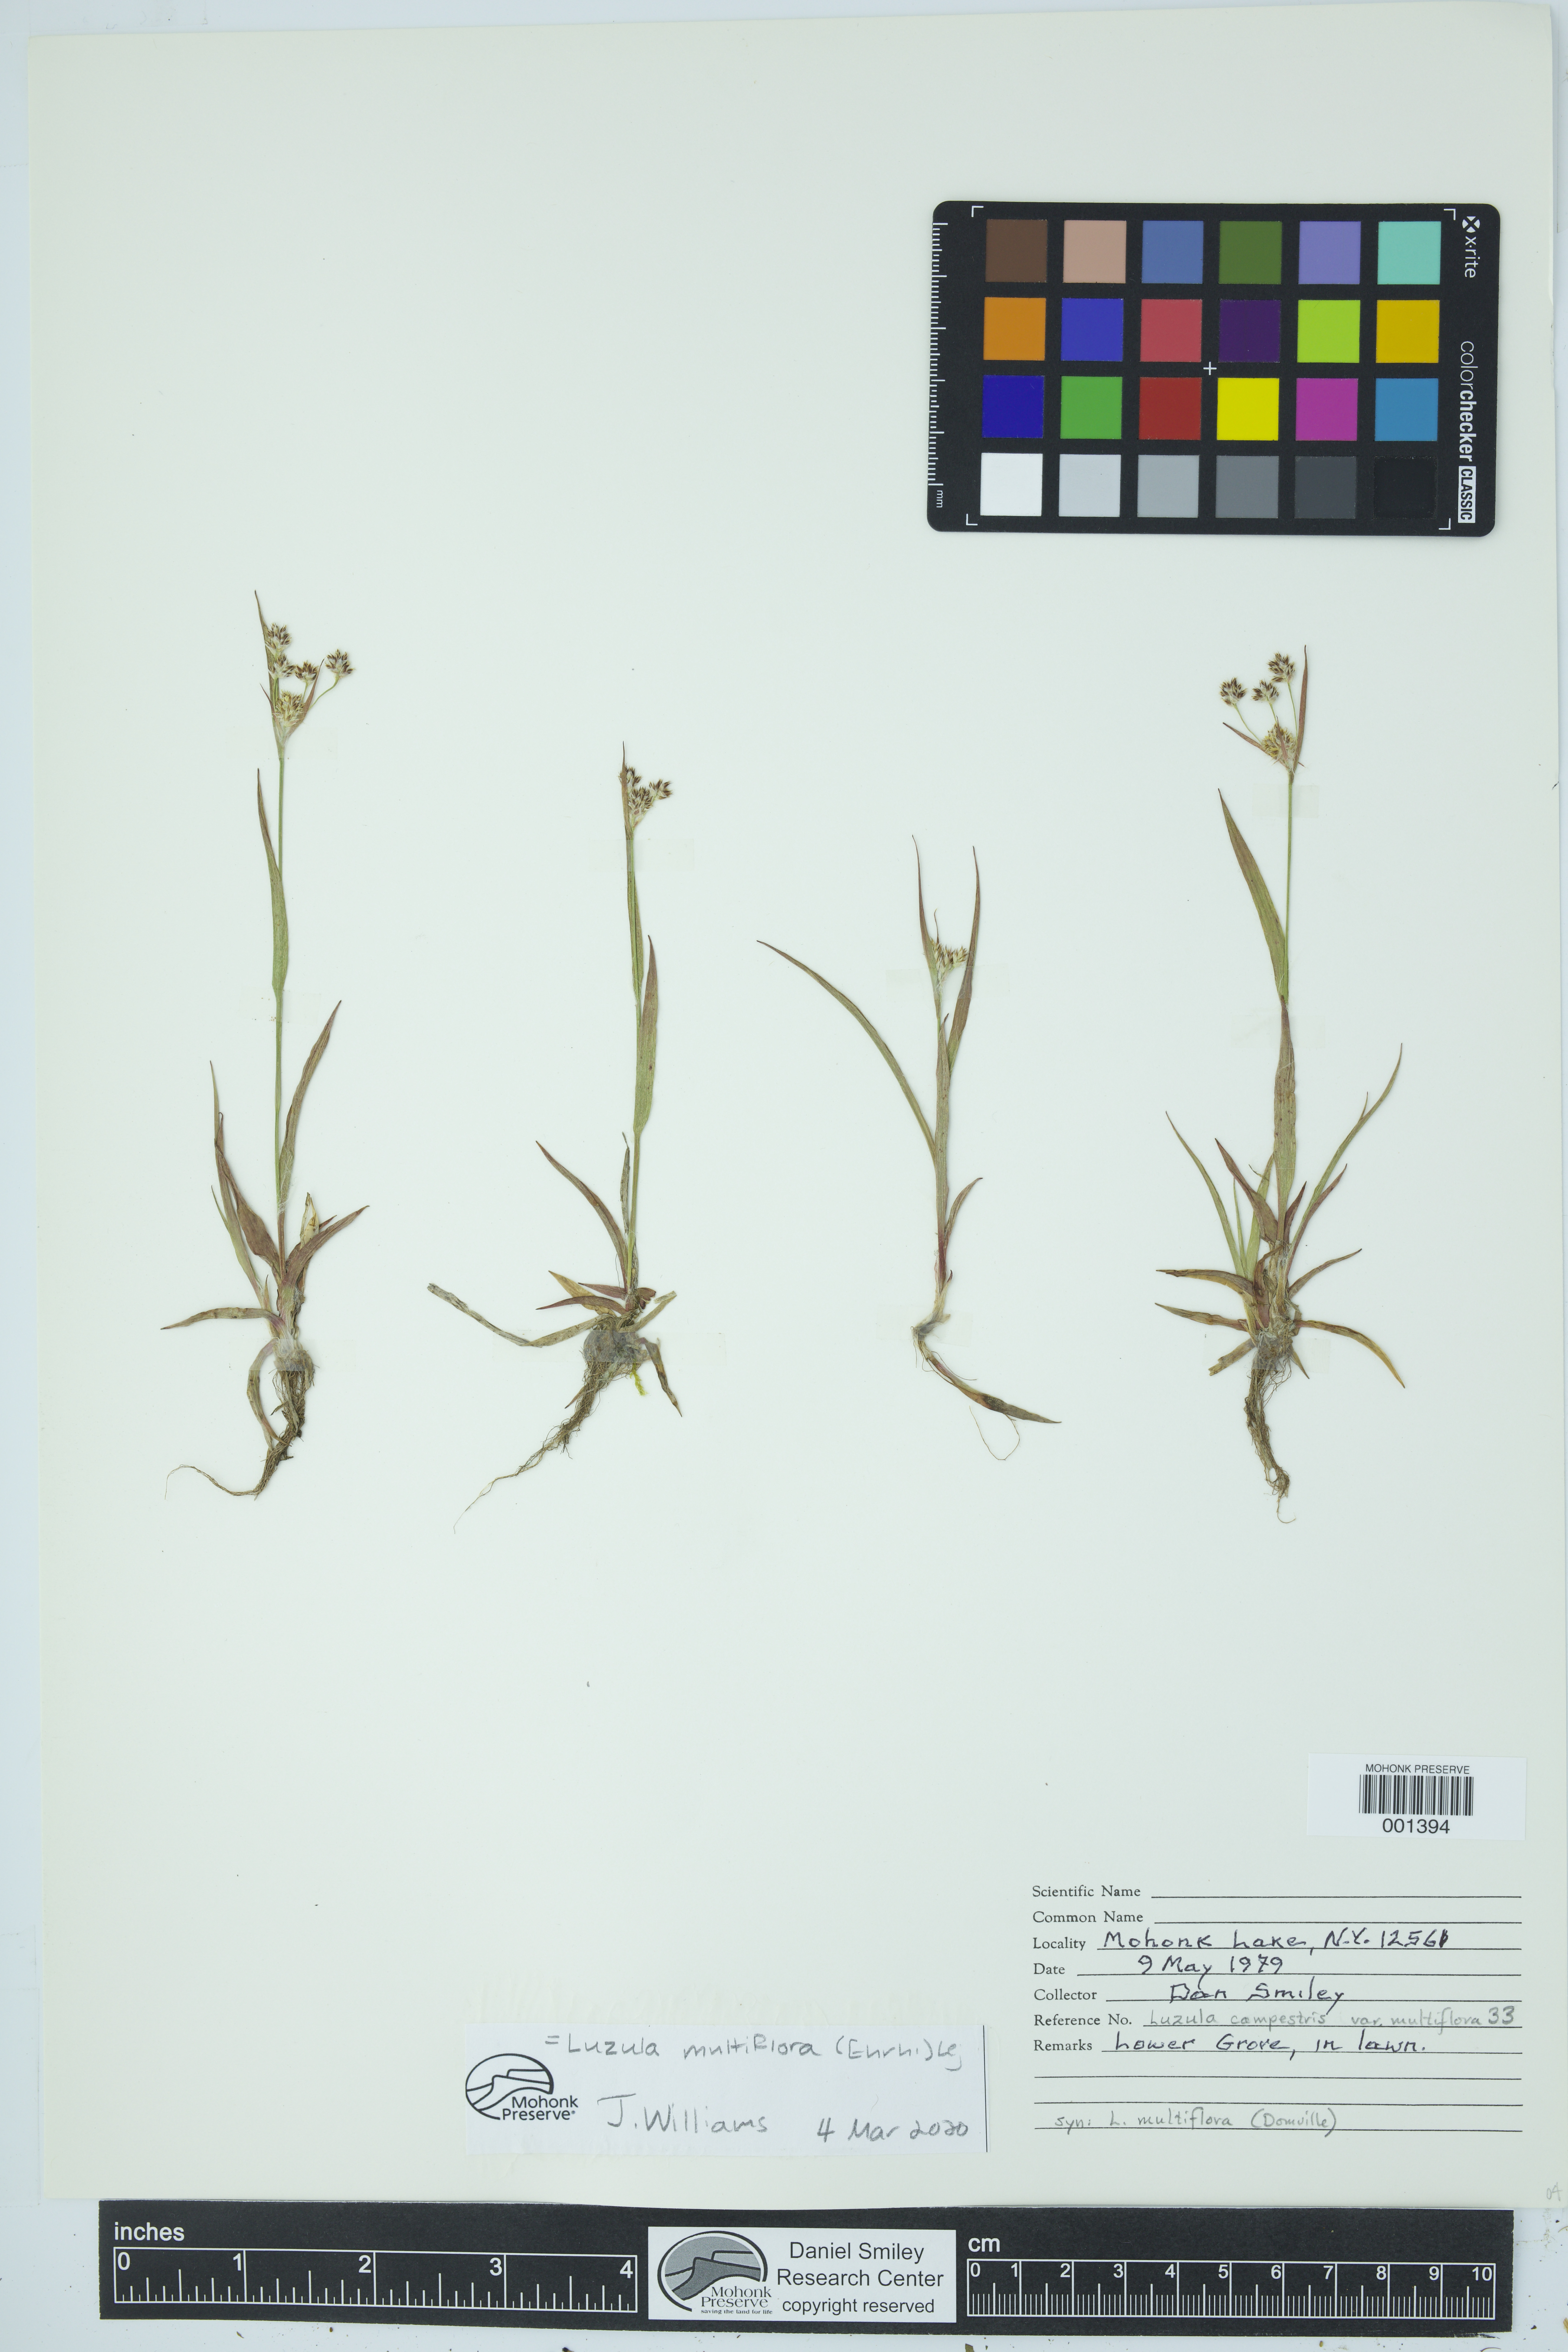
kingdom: Plantae
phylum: Tracheophyta
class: Liliopsida
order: Poales
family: Juncaceae
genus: Luzula
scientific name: Luzula multiflora
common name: Heath wood-rush
